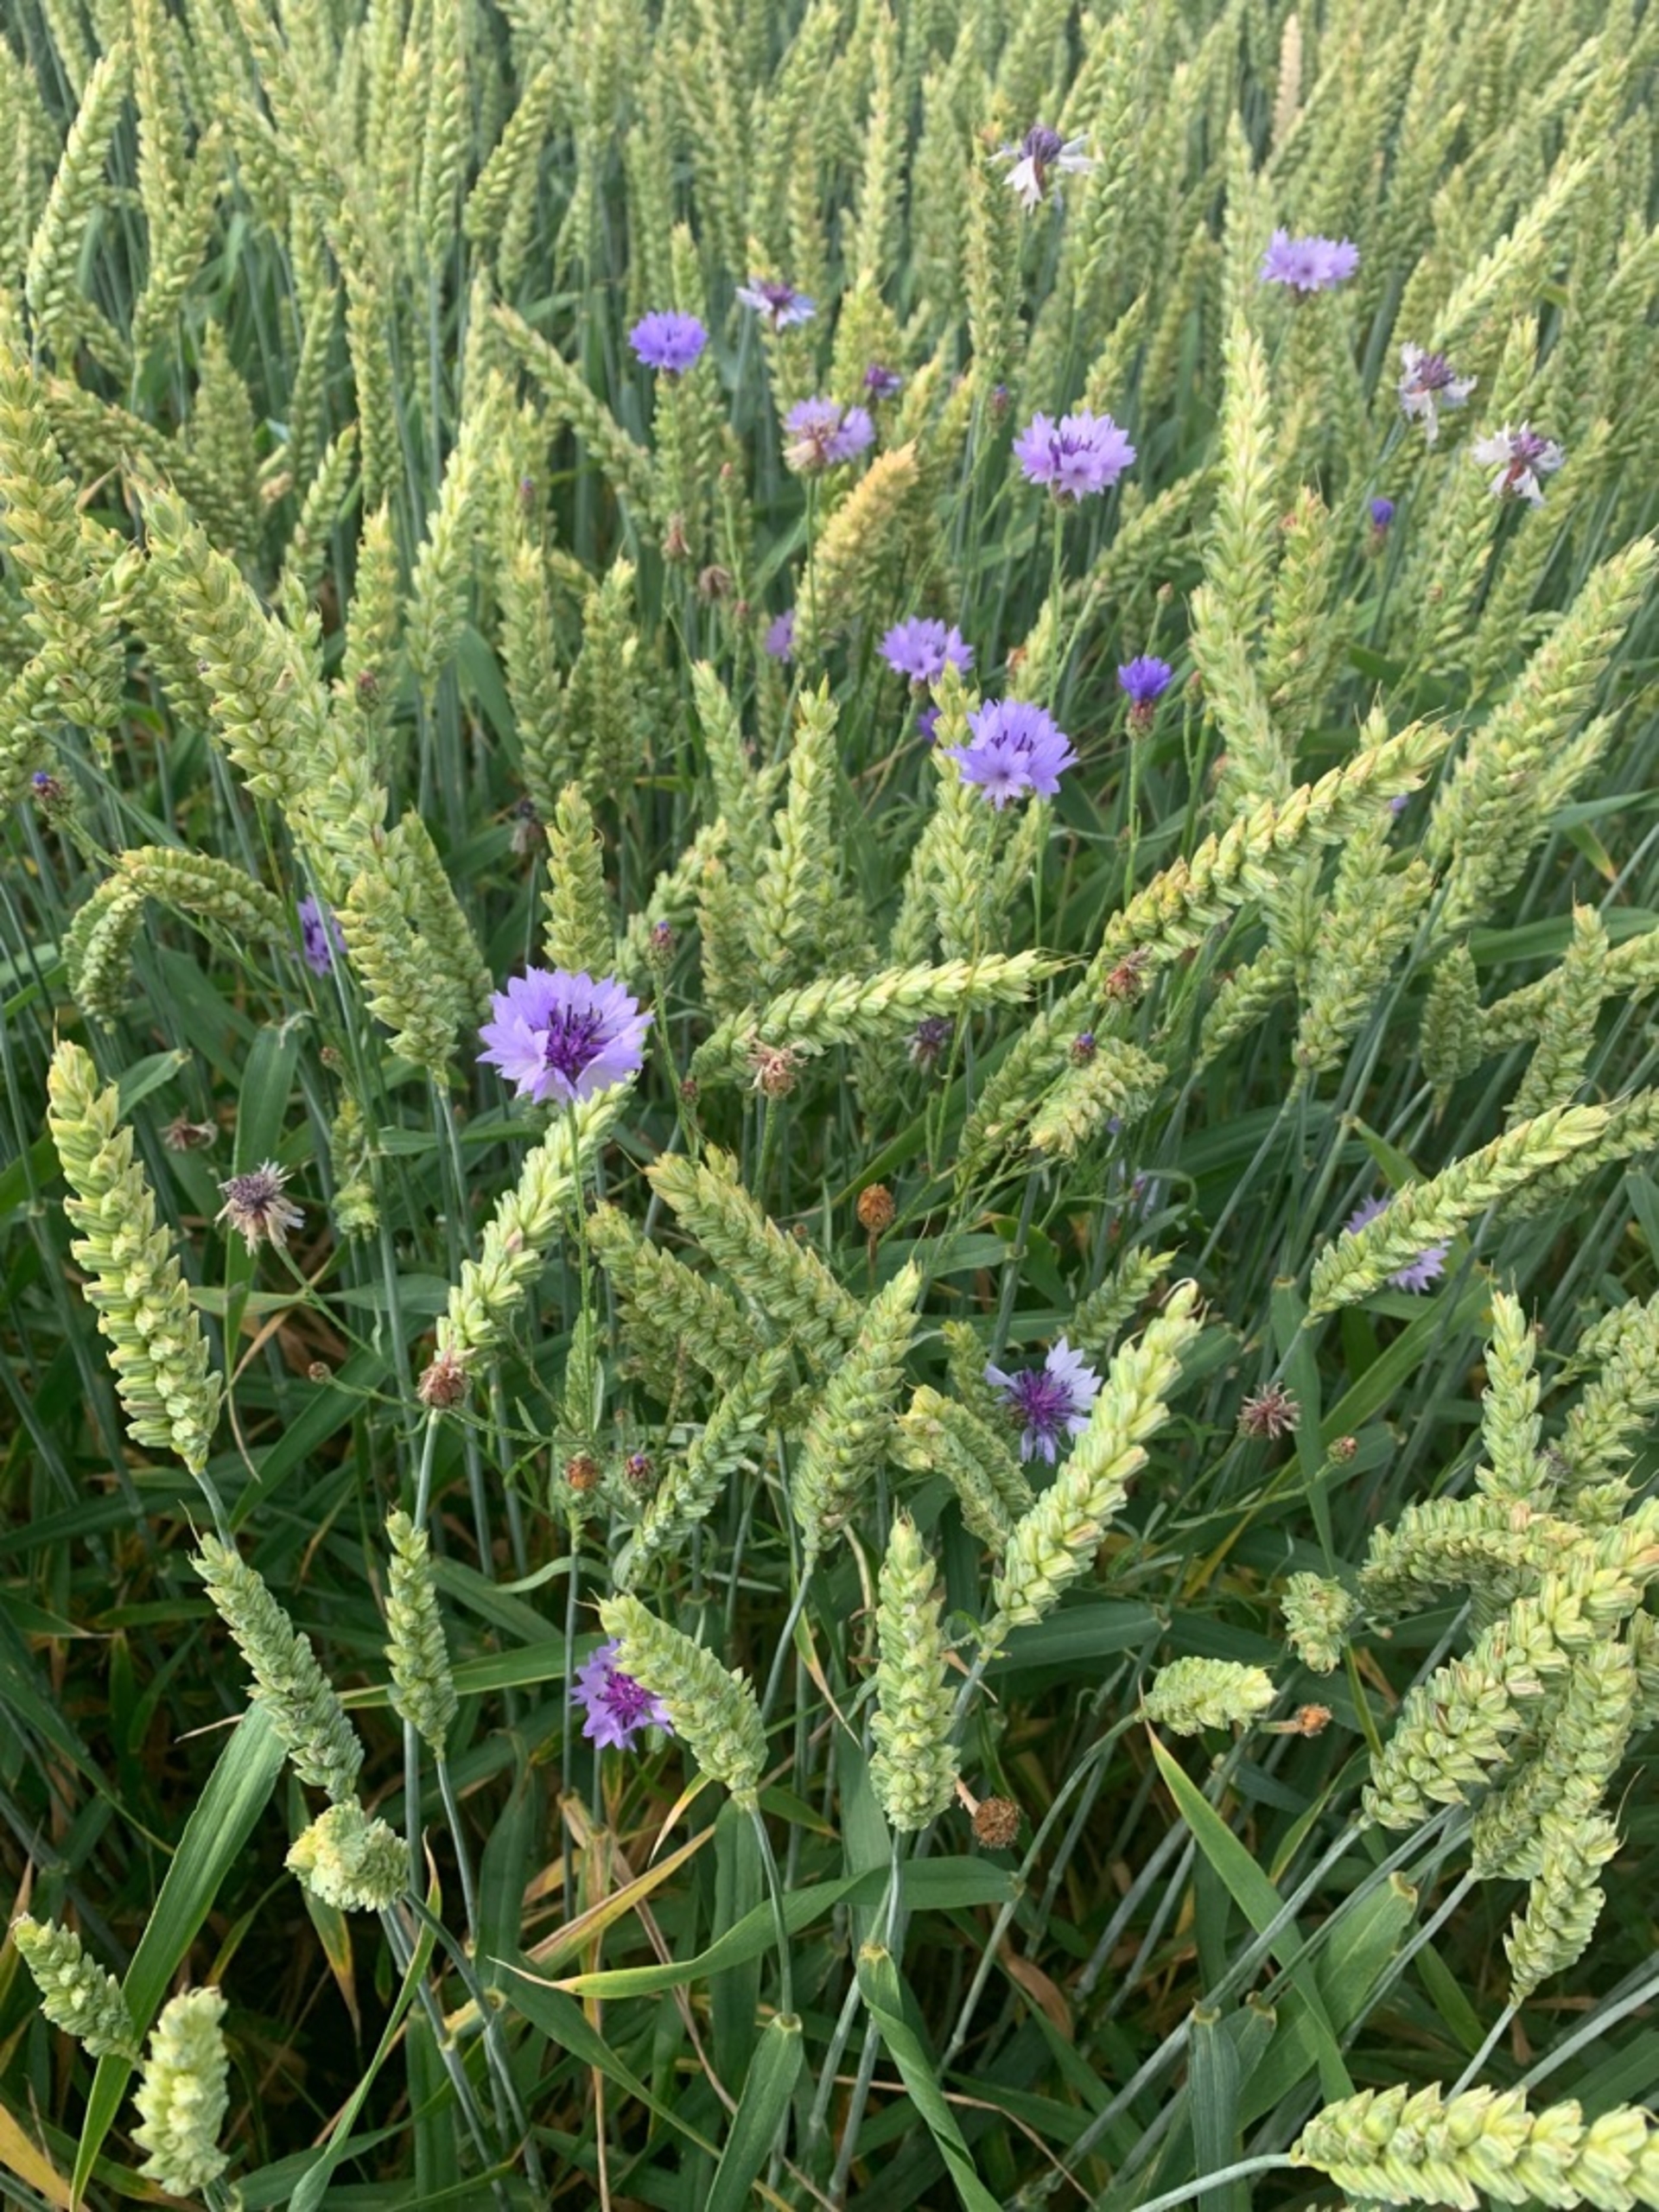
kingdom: Plantae
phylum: Tracheophyta
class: Magnoliopsida
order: Asterales
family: Asteraceae
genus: Centaurea
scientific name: Centaurea cyanus
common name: Kornblomst
